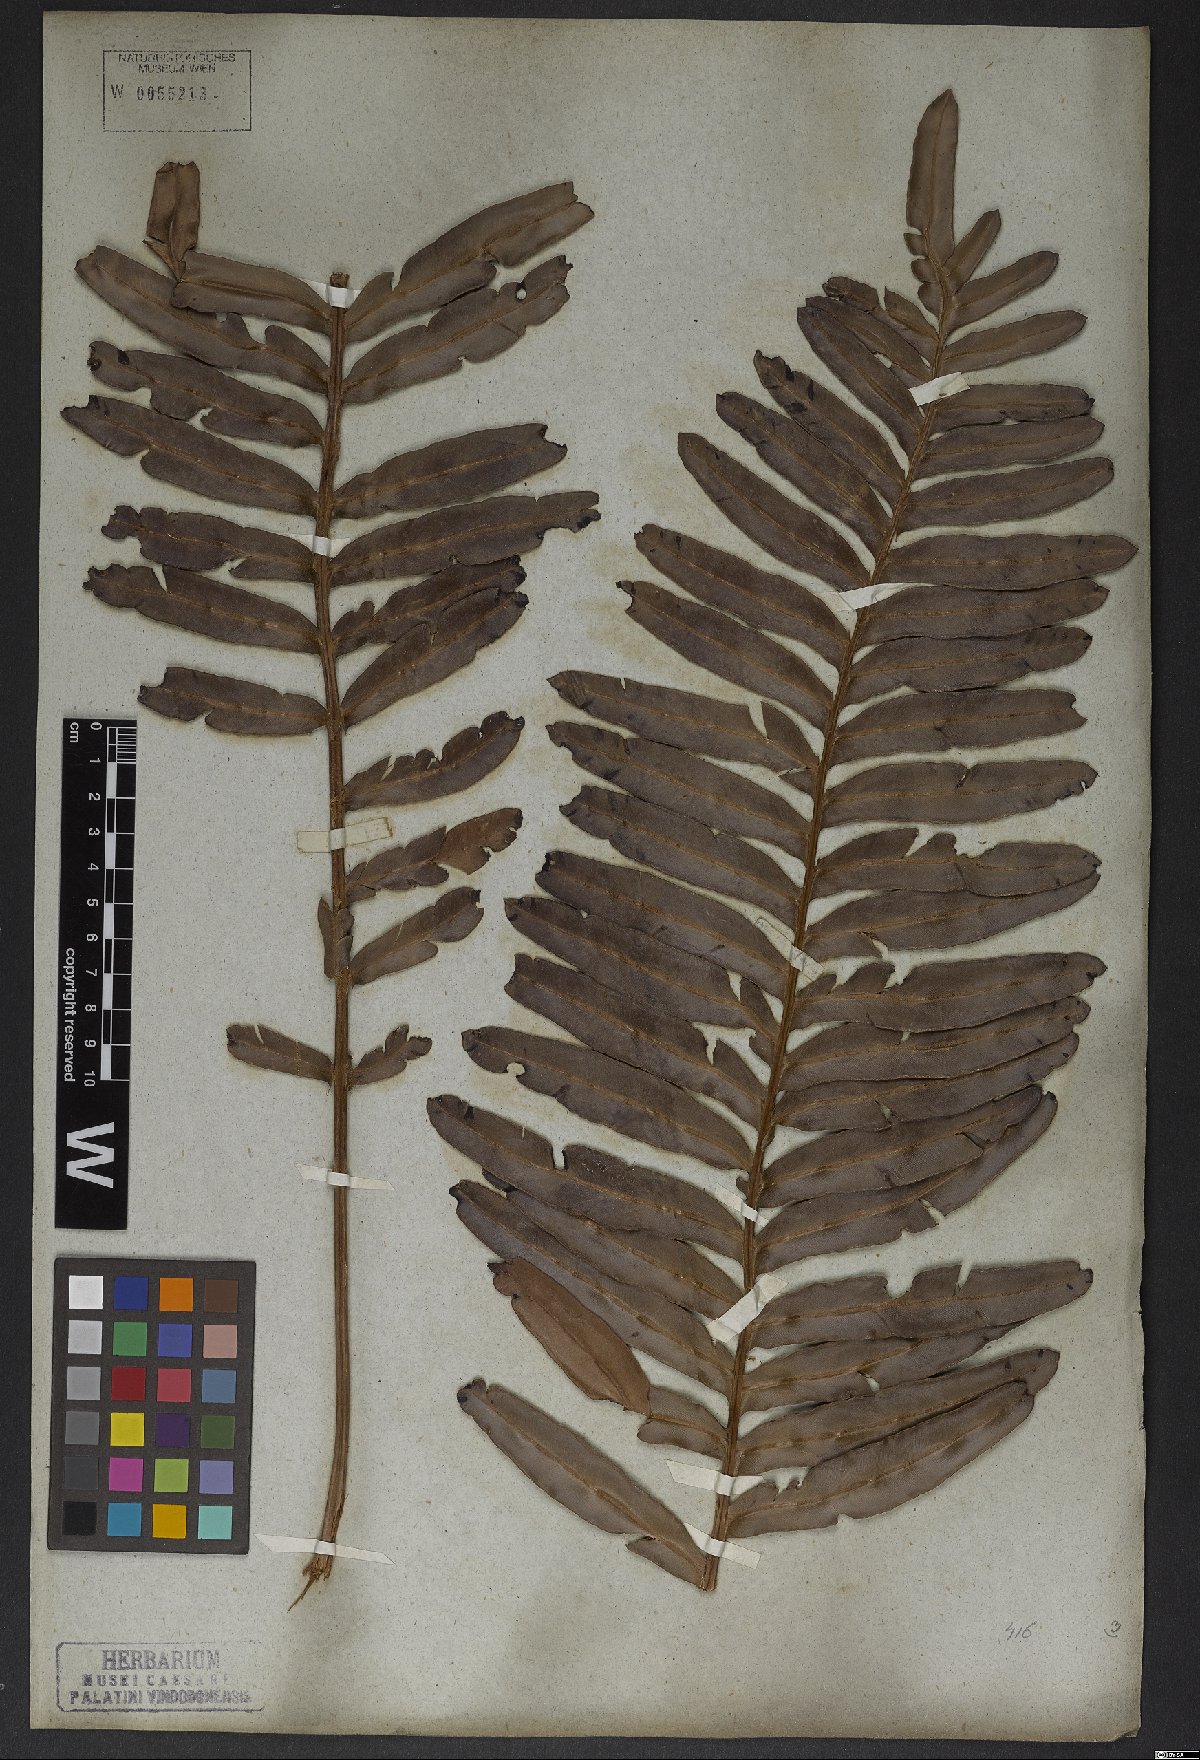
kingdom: Plantae
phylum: Tracheophyta
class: Polypodiopsida
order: Polypodiales
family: Blechnaceae
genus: Lomariocycas
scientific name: Lomariocycas schomburgkii
